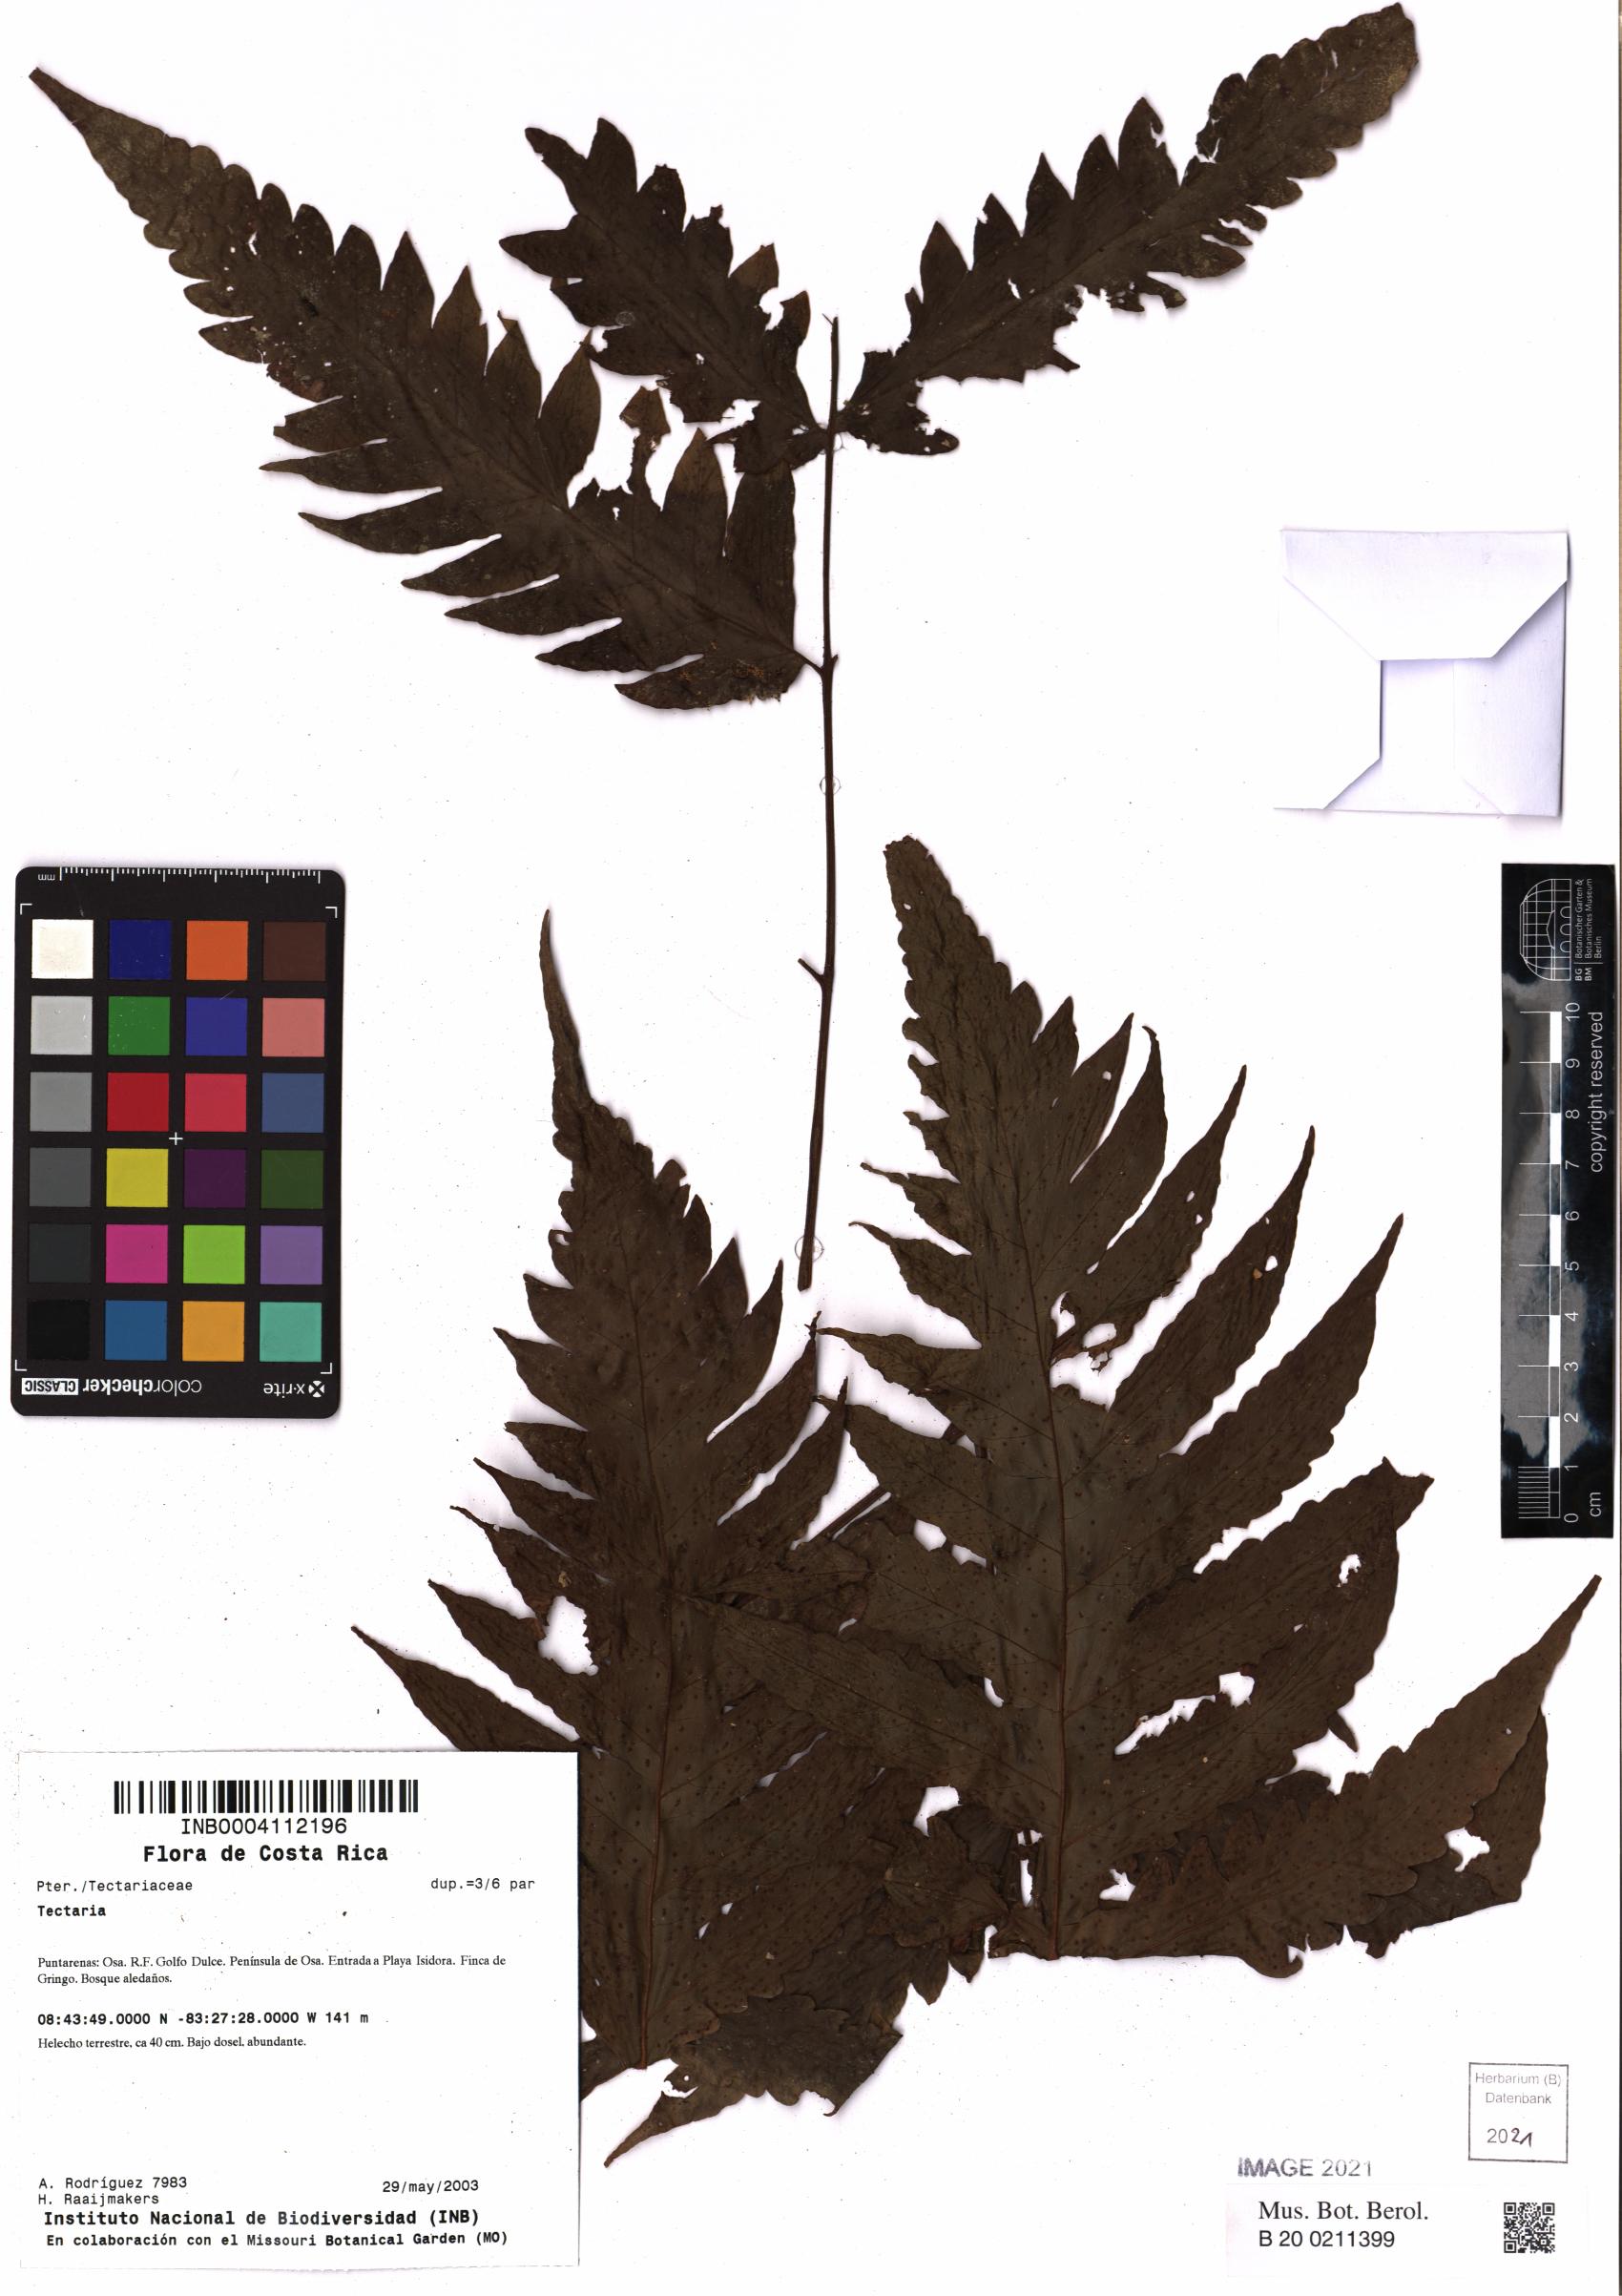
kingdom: Plantae
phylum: Tracheophyta
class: Polypodiopsida
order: Polypodiales
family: Tectariaceae
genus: Tectaria
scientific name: Tectaria
